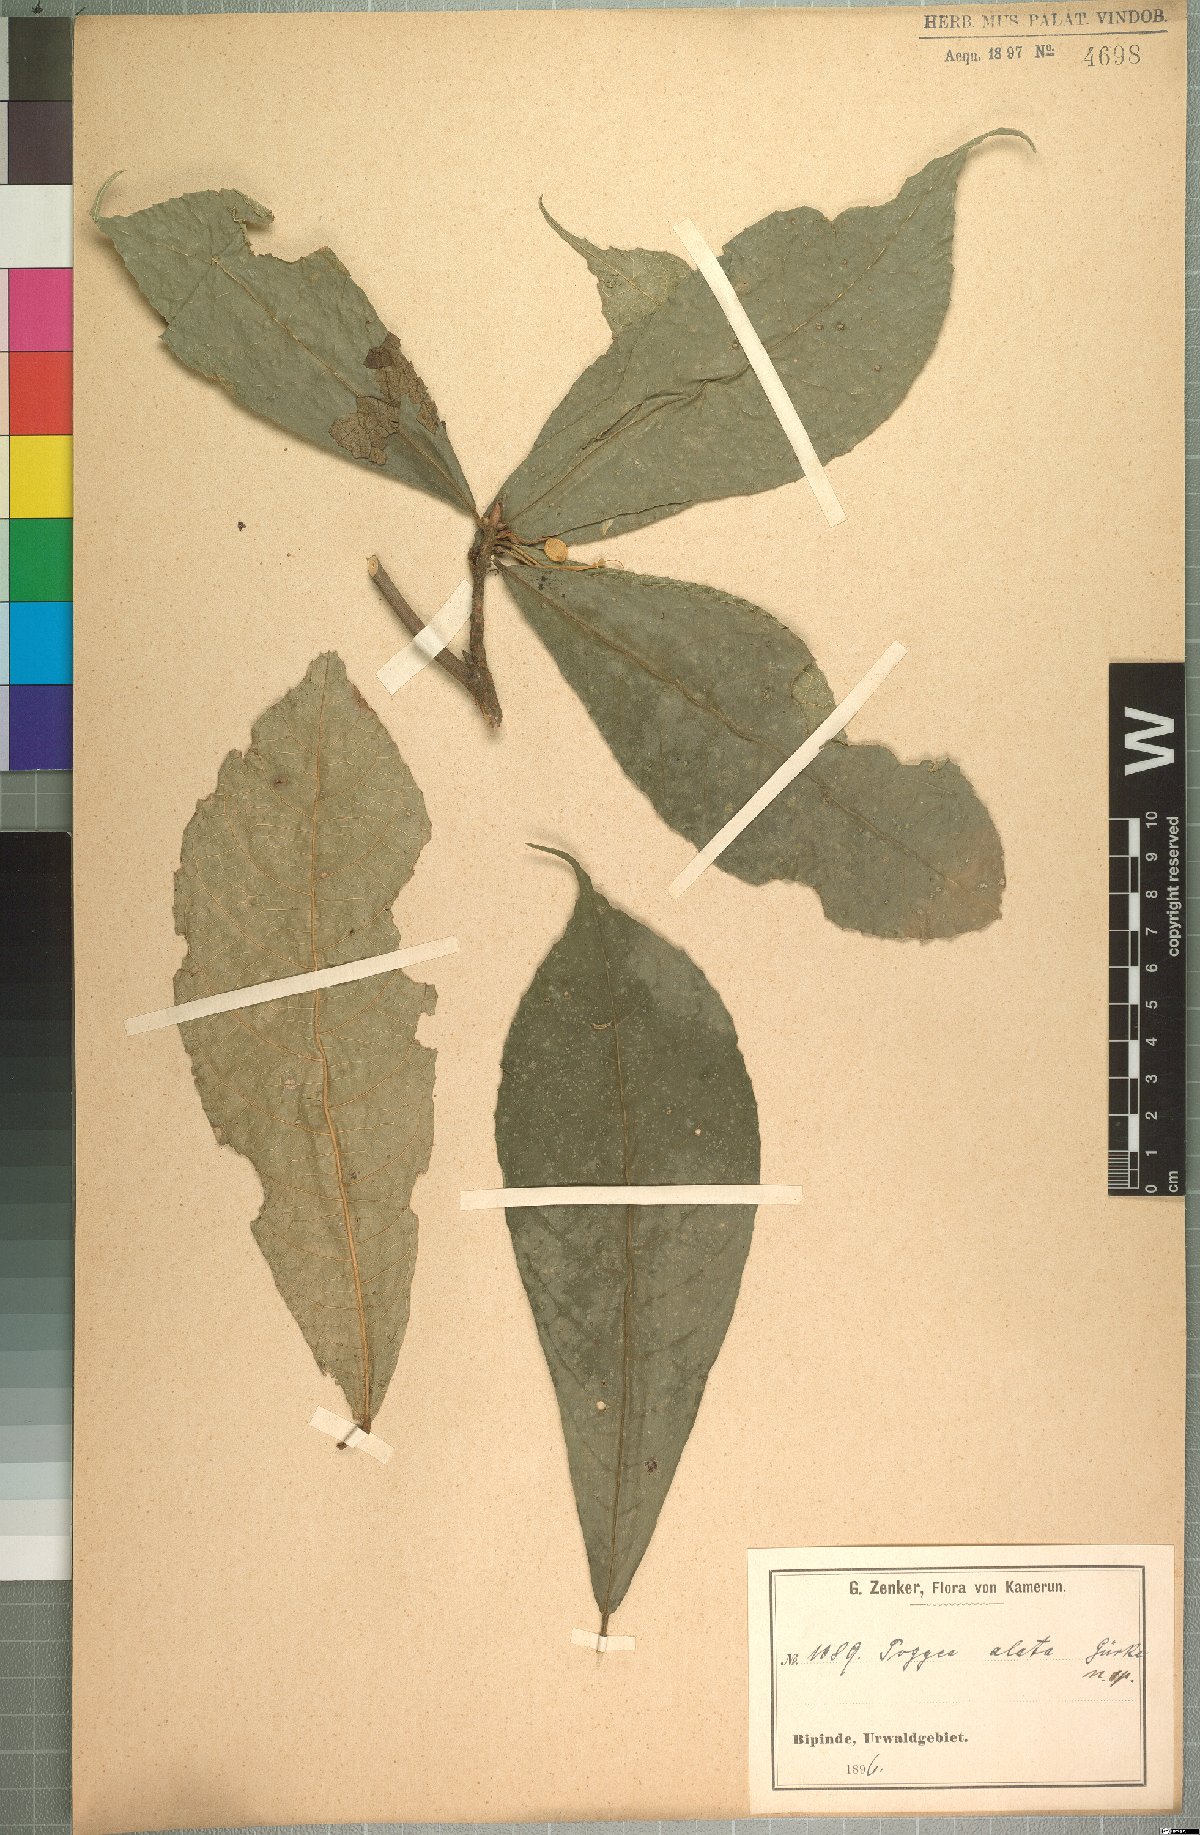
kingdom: Plantae
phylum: Tracheophyta
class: Magnoliopsida
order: Malpighiales
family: Achariaceae
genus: Poggea
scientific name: Poggea alata
